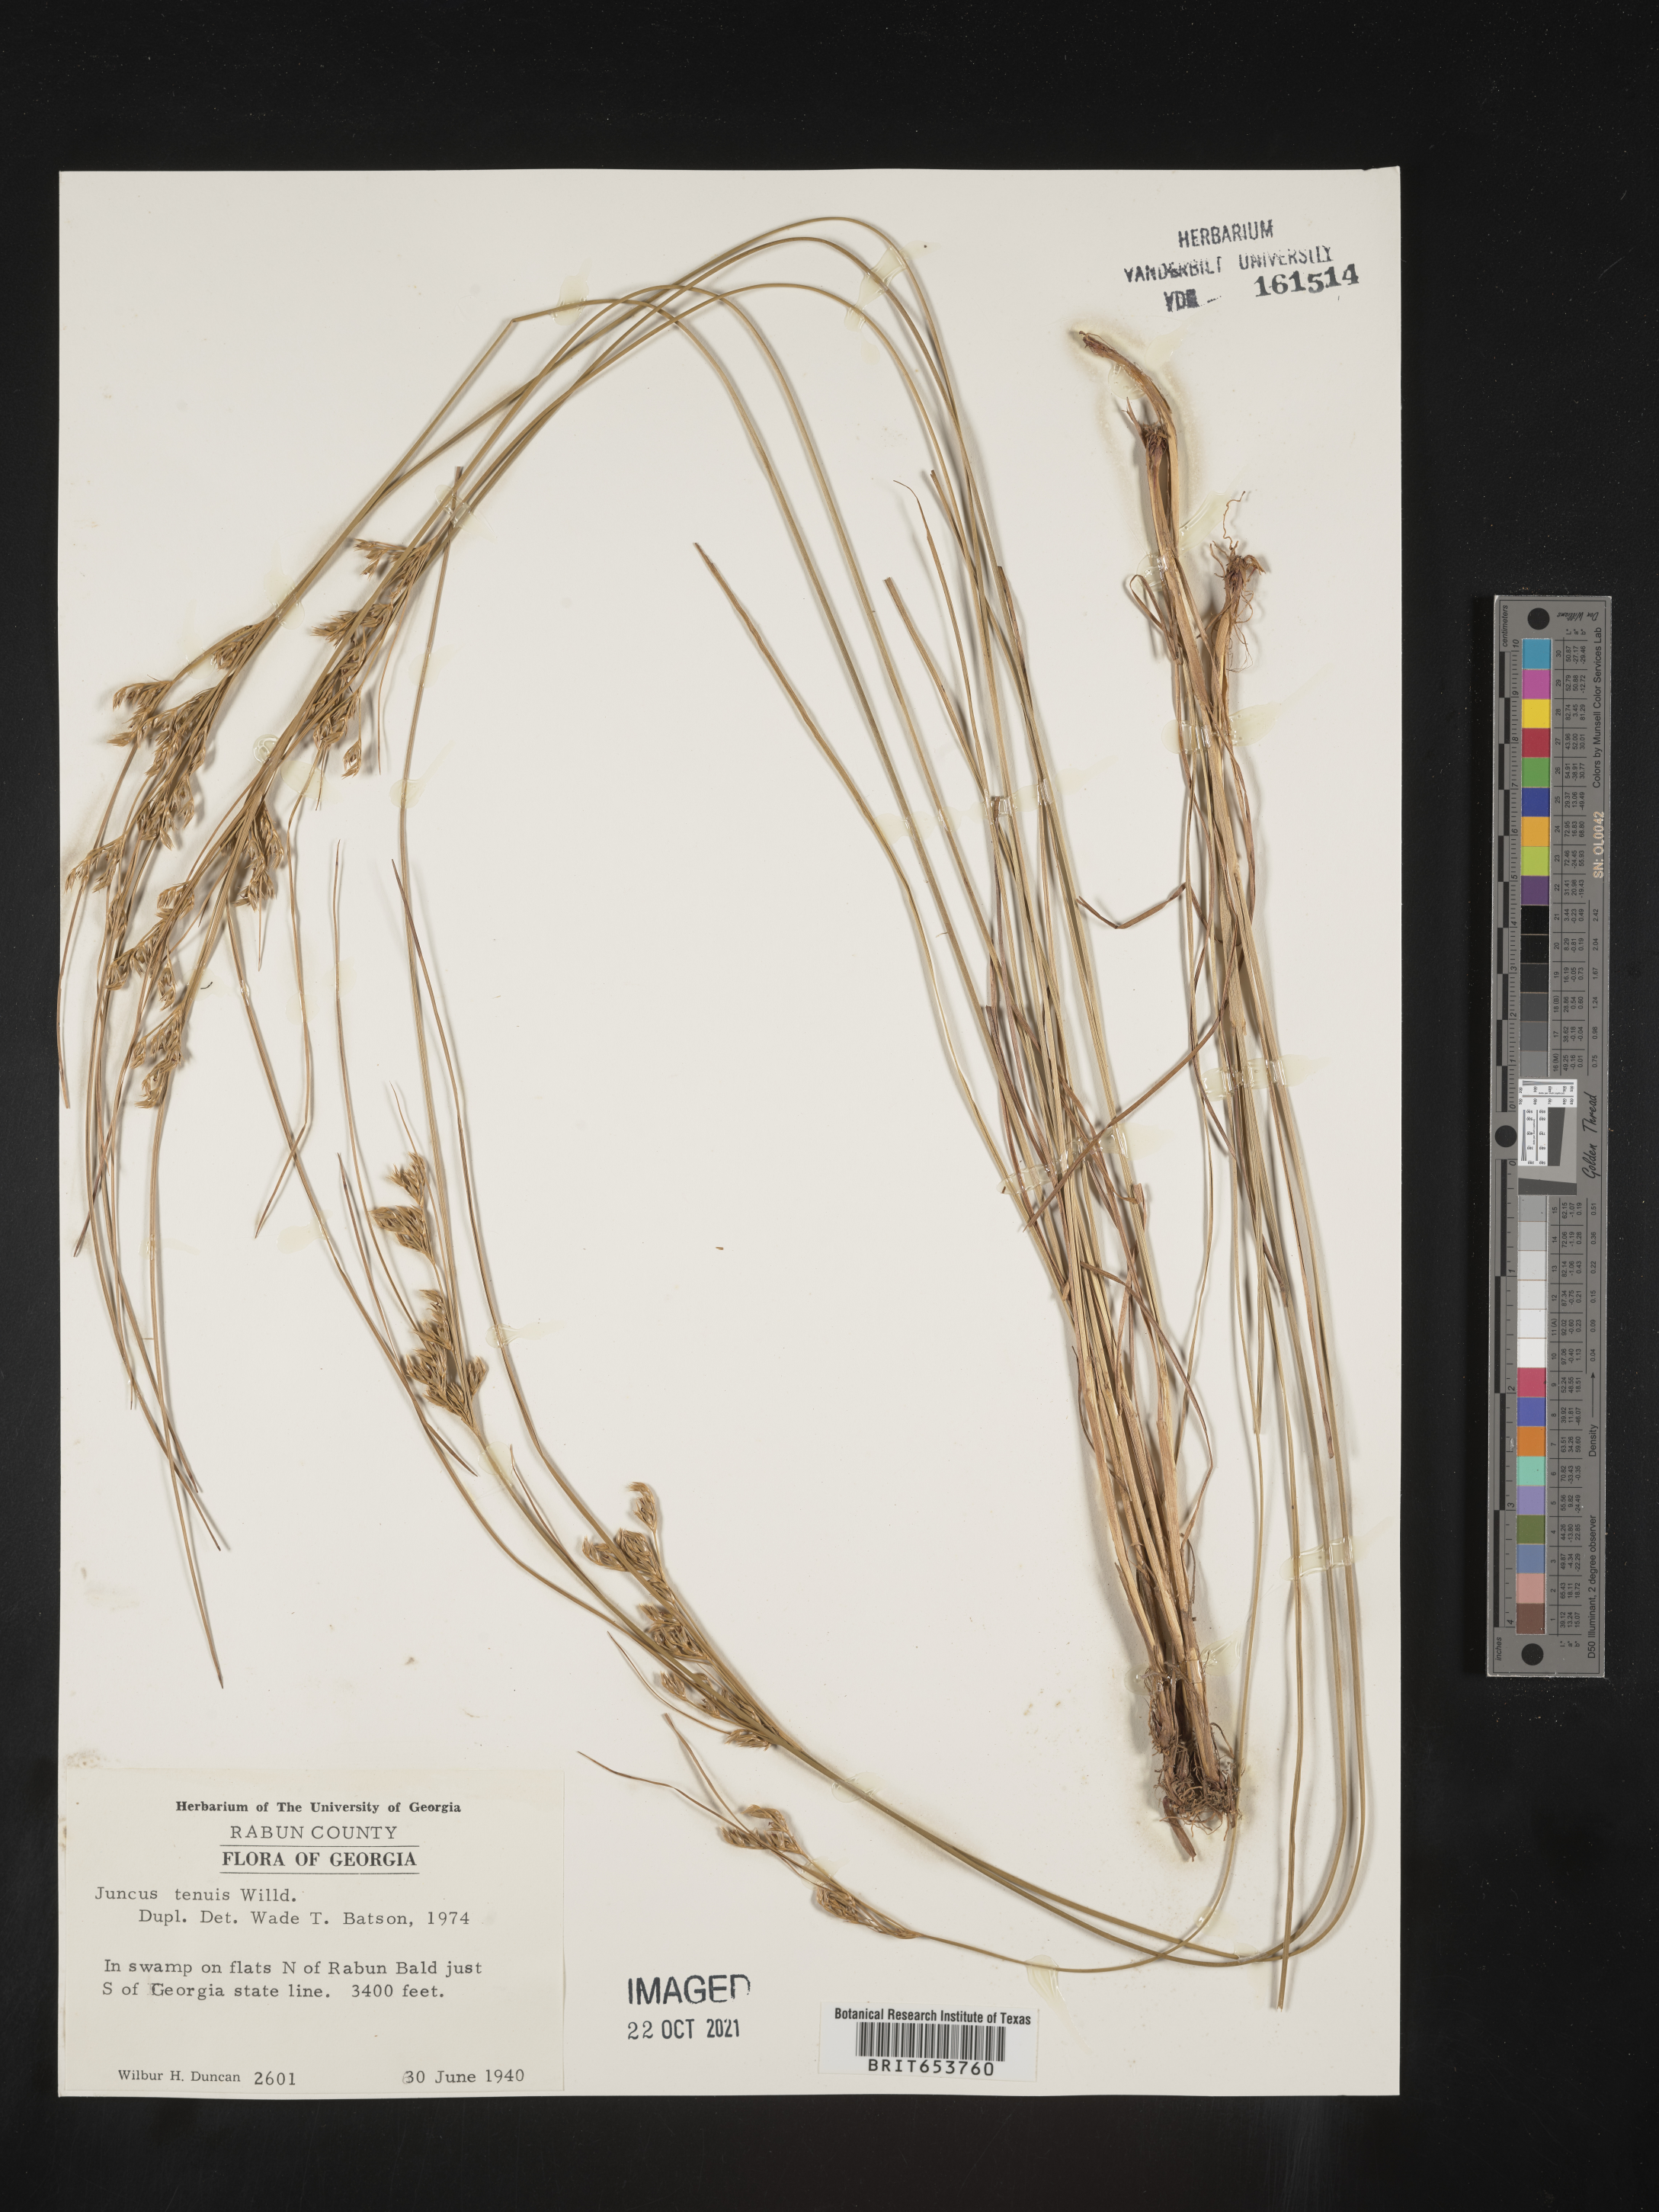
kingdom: Plantae
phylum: Tracheophyta
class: Liliopsida
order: Poales
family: Juncaceae
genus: Juncus
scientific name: Juncus tenuis
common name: Slender rush
